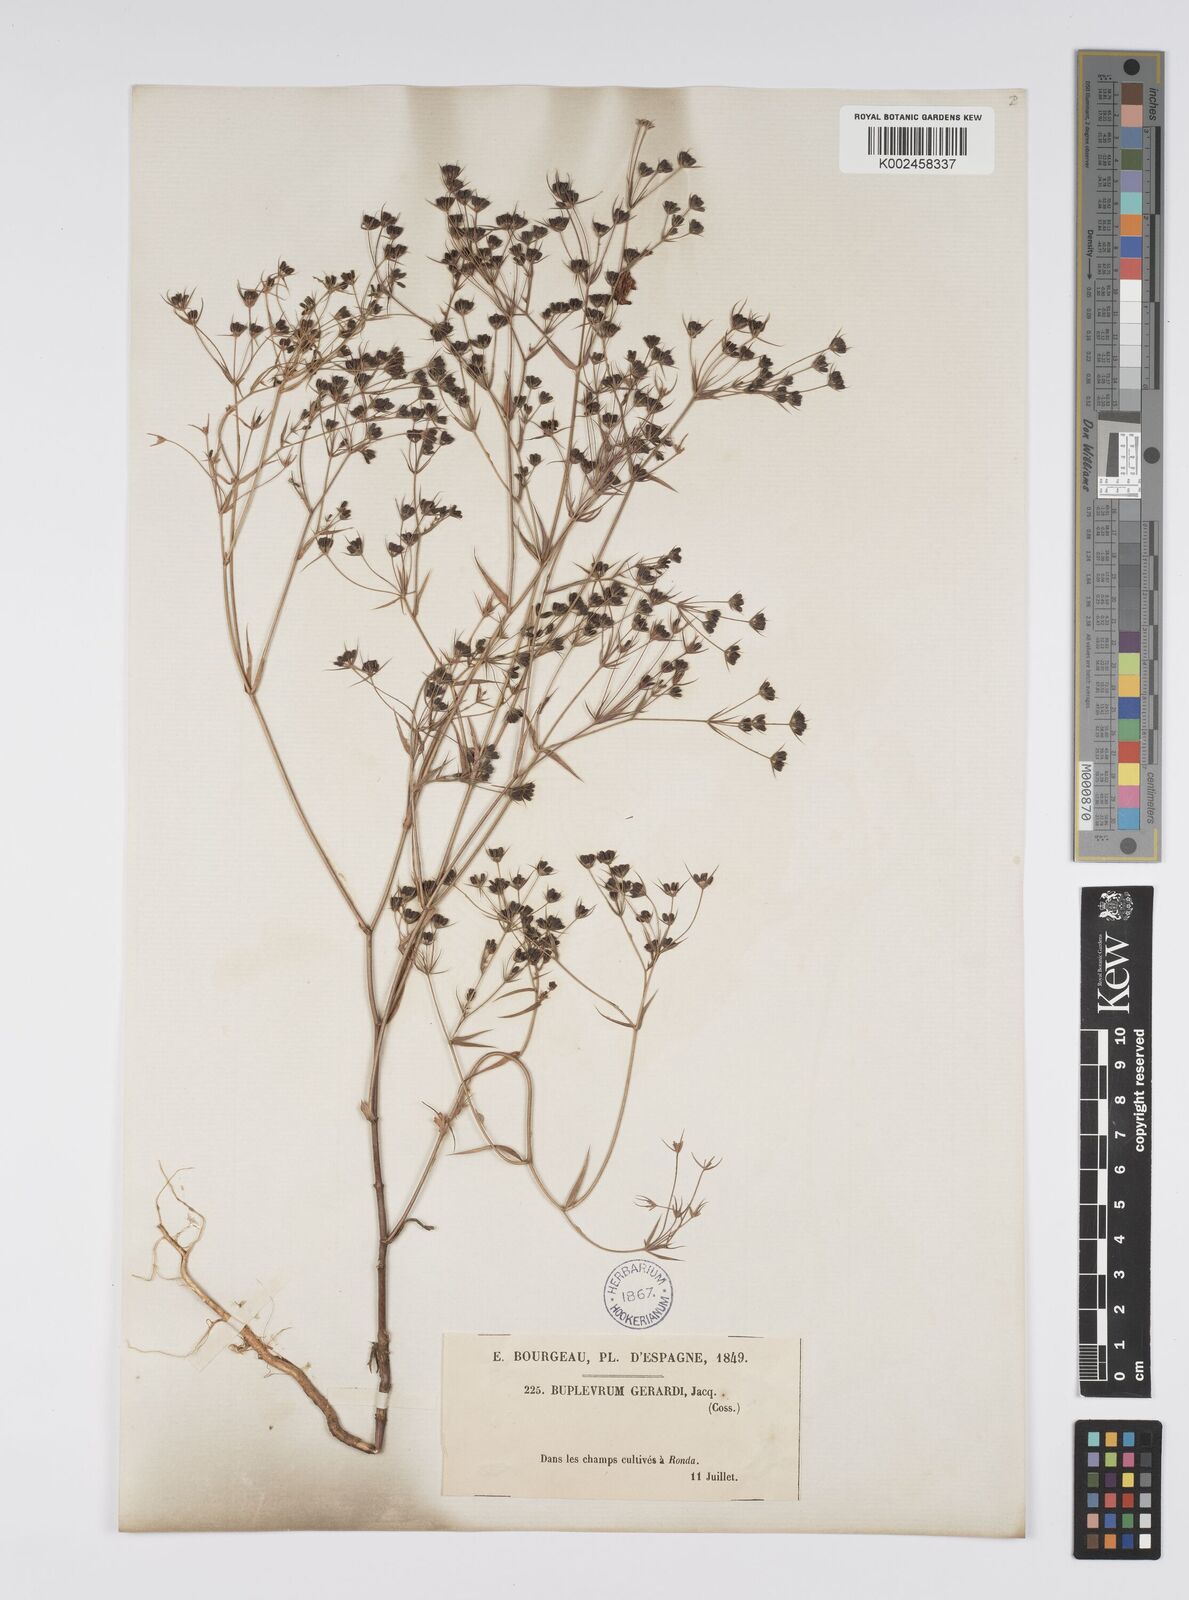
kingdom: Plantae
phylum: Tracheophyta
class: Magnoliopsida
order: Apiales
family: Apiaceae
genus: Bupleurum
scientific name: Bupleurum gerardi
